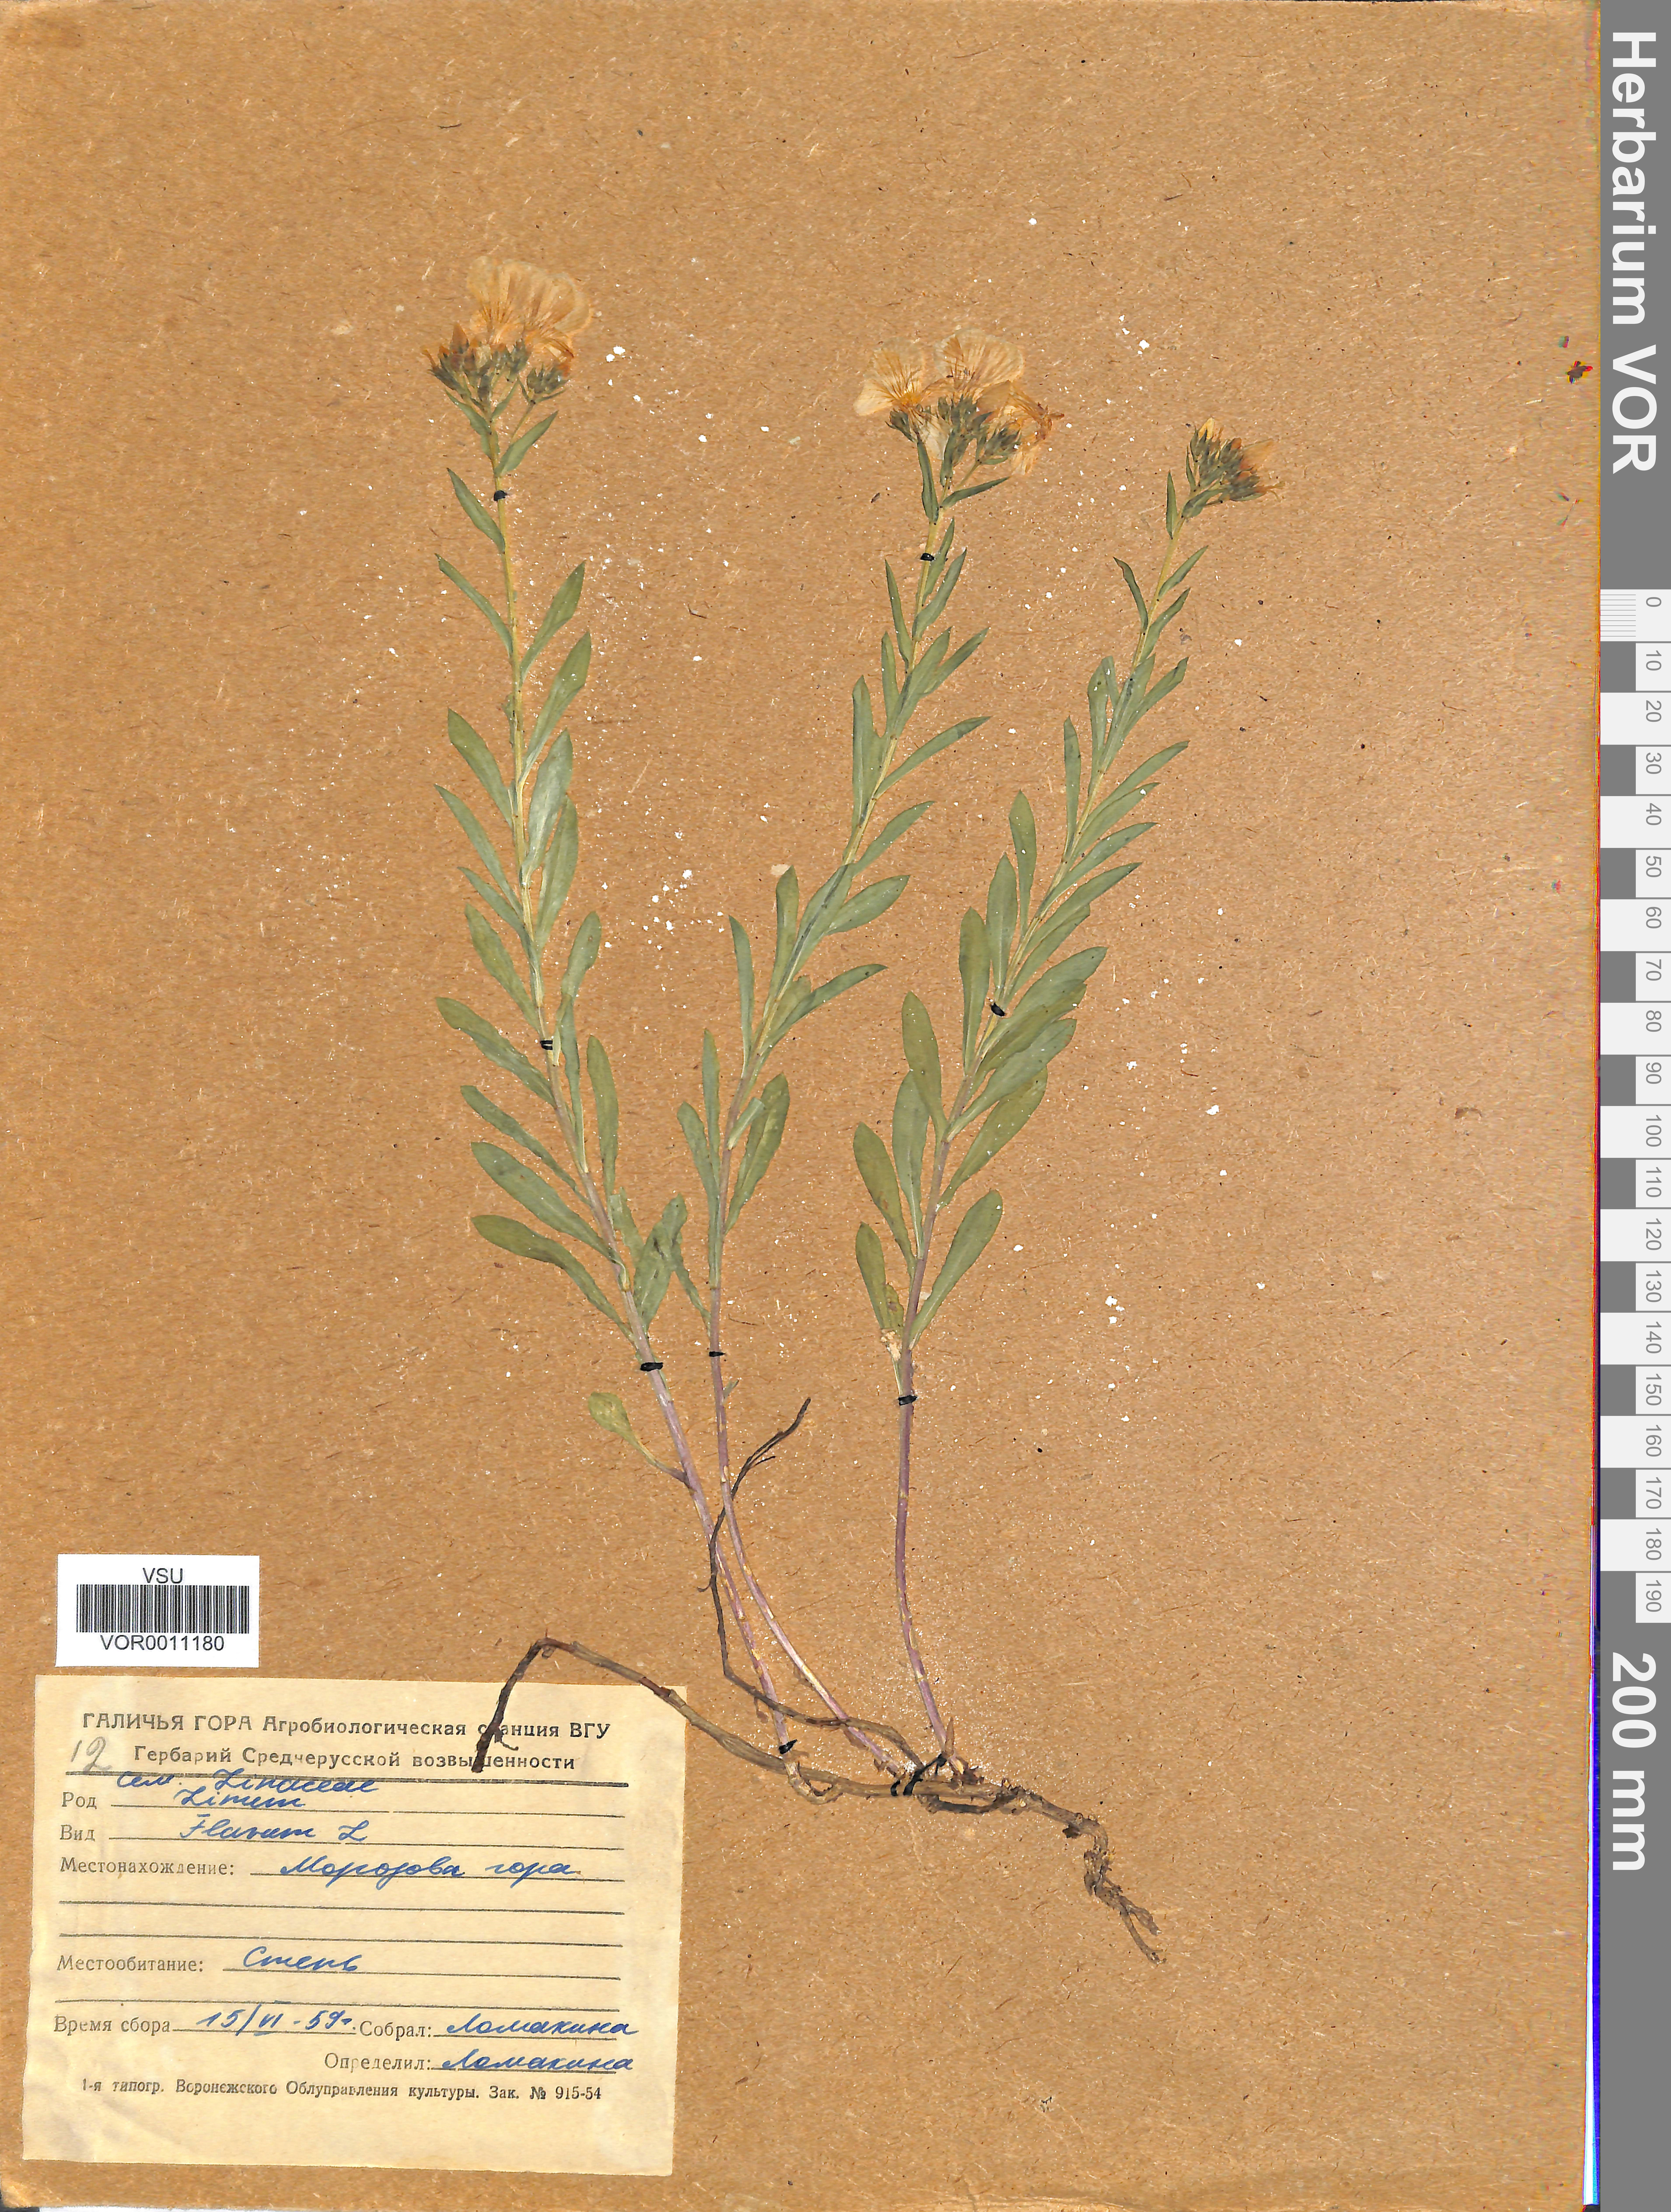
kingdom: Plantae
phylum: Tracheophyta
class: Magnoliopsida
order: Malpighiales
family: Linaceae
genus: Linum
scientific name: Linum flavum
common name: Yellow flax
